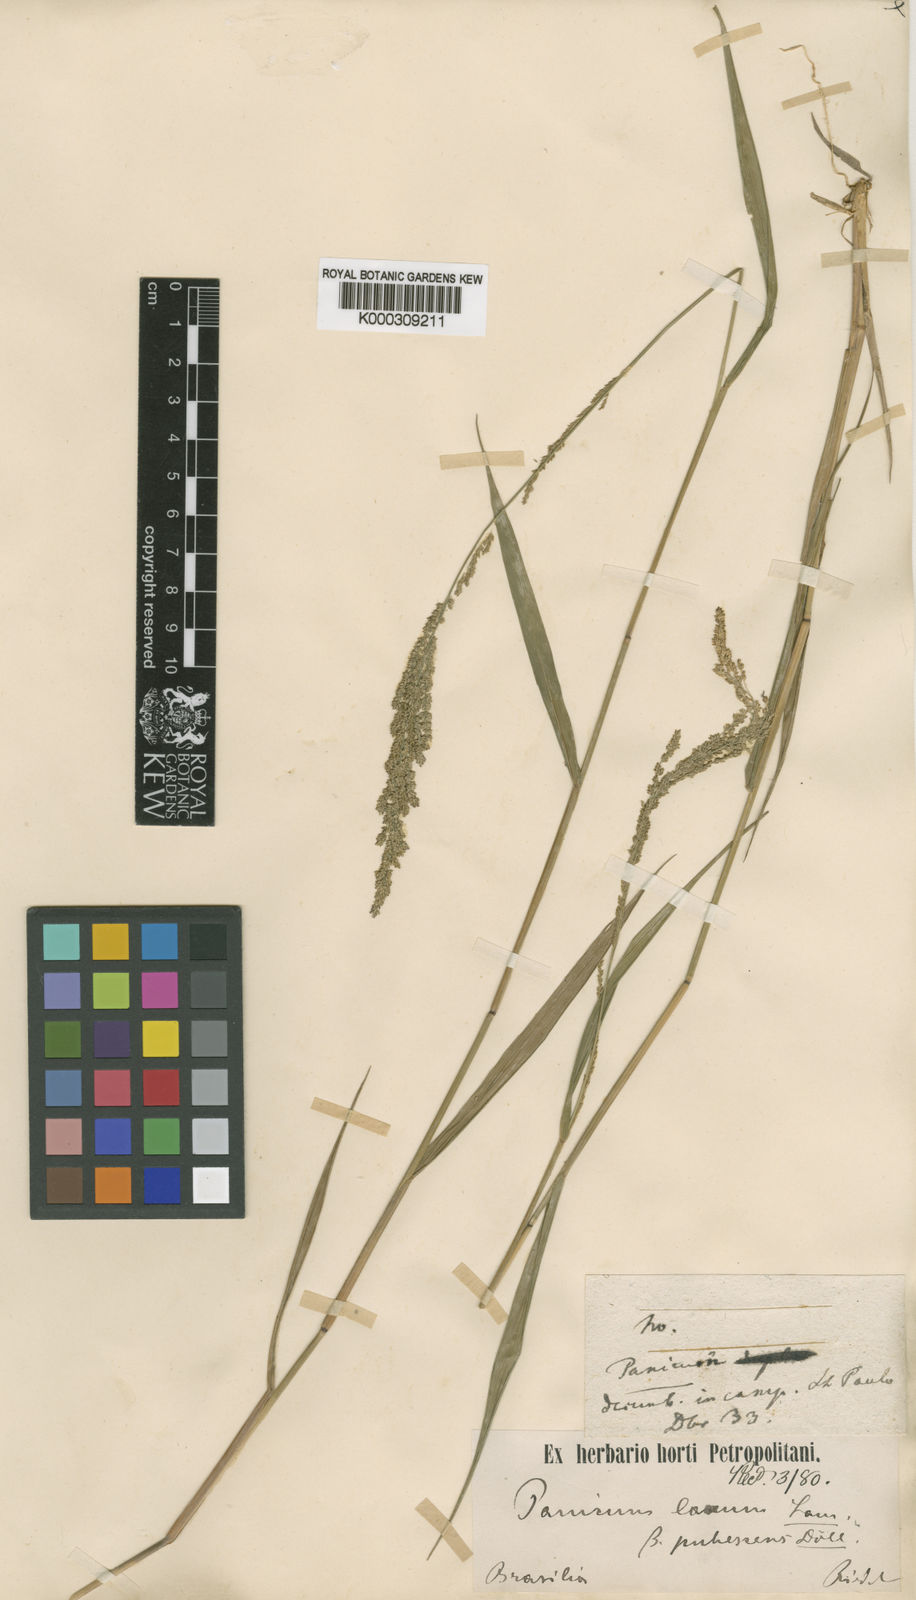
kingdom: Plantae
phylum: Tracheophyta
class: Liliopsida
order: Poales
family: Poaceae
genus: Steinchisma
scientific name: Steinchisma laxum
